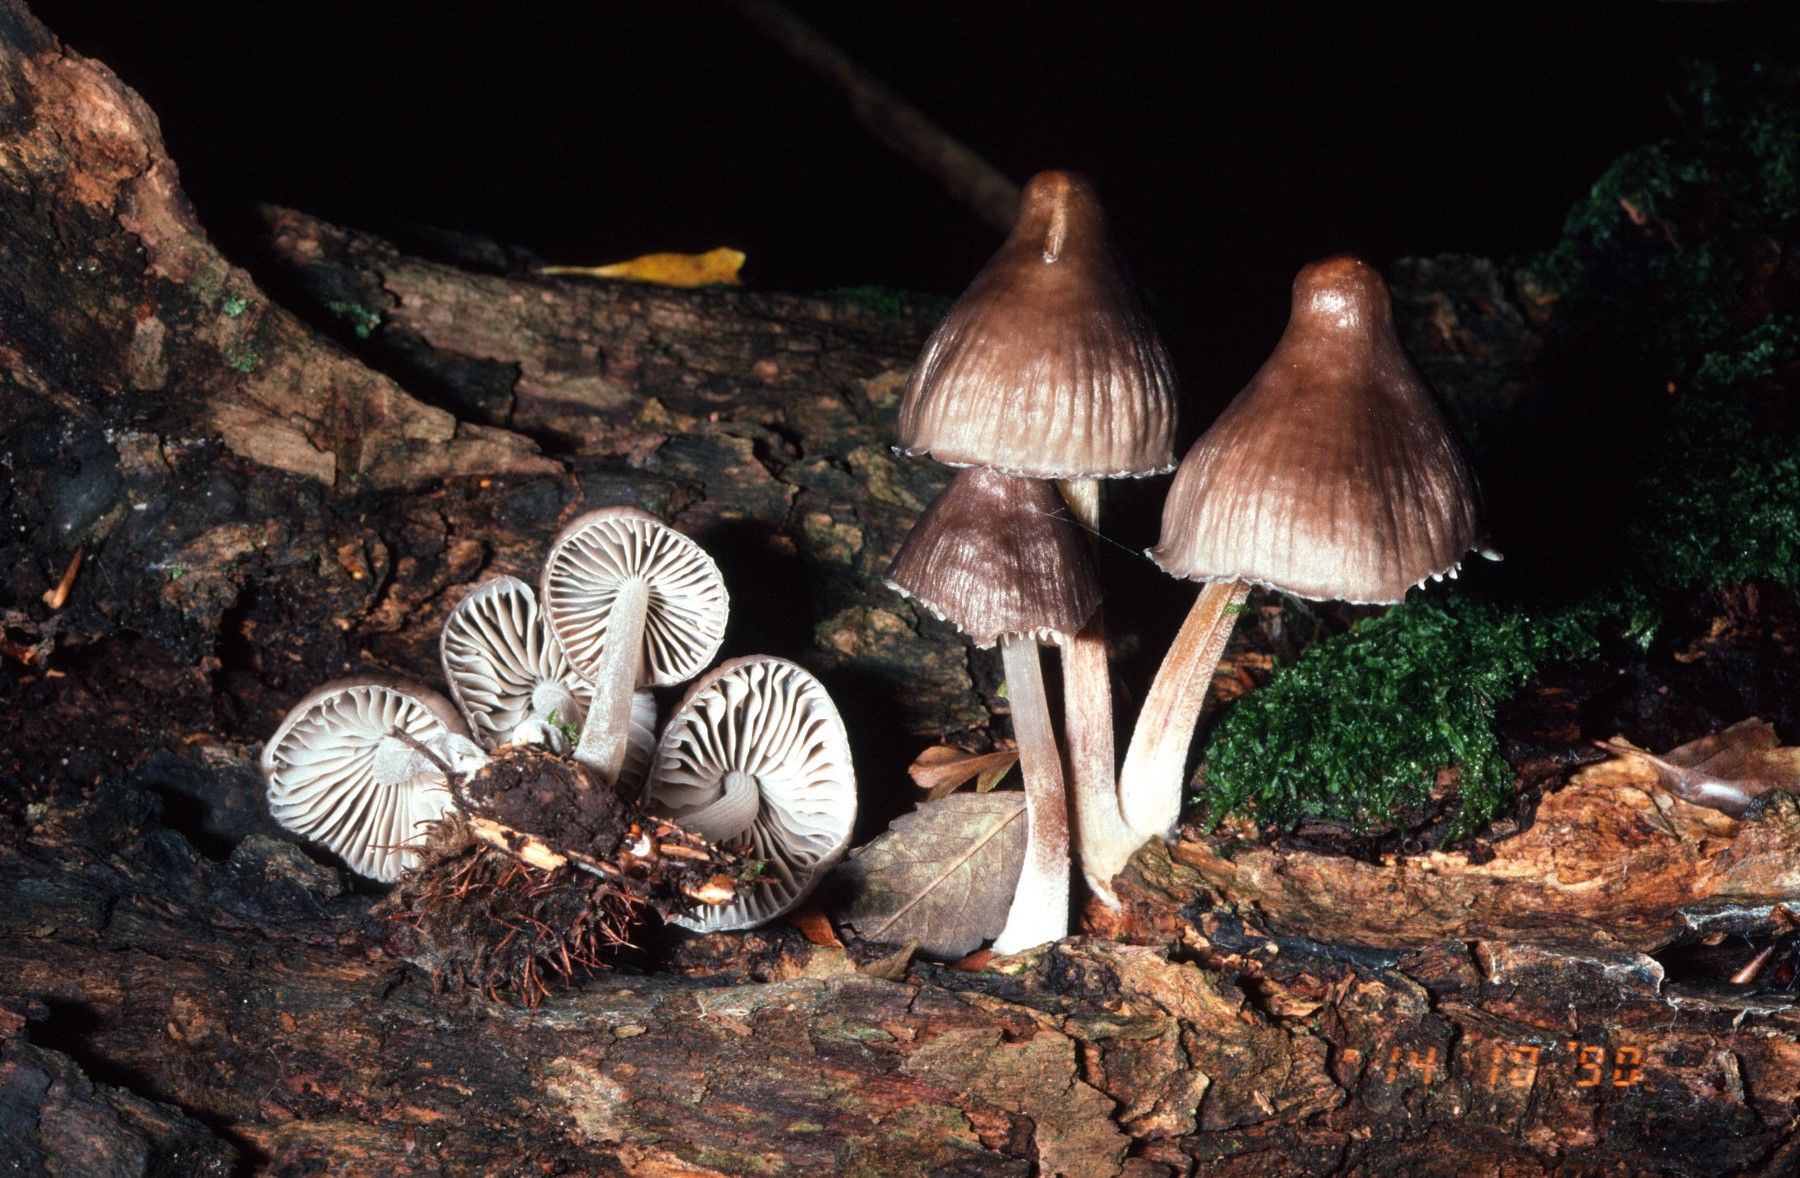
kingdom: Fungi
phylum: Basidiomycota
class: Agaricomycetes
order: Agaricales
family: Mycenaceae
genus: Mycena
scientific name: Mycena inclinata
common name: nikkende huesvamp
